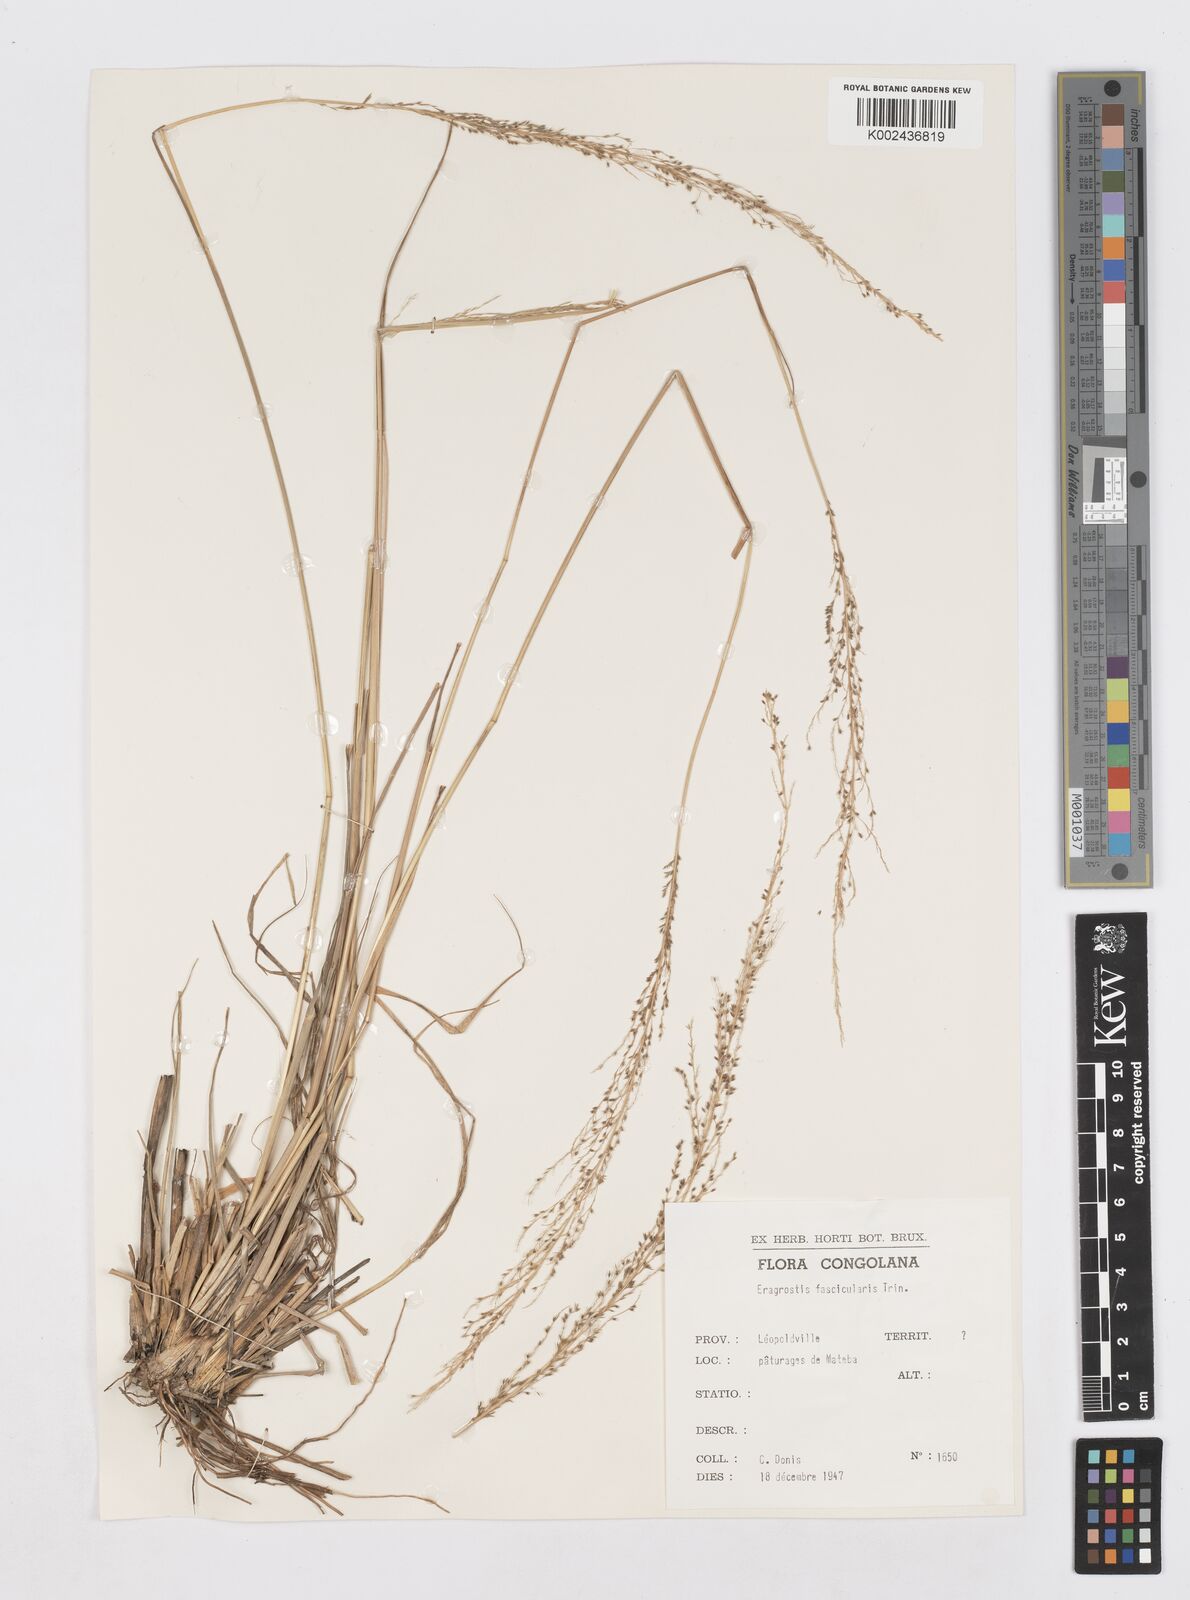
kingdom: Plantae
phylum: Tracheophyta
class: Liliopsida
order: Poales
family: Poaceae
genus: Sporobolus
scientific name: Sporobolus pyramidalis
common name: West indian dropseed
